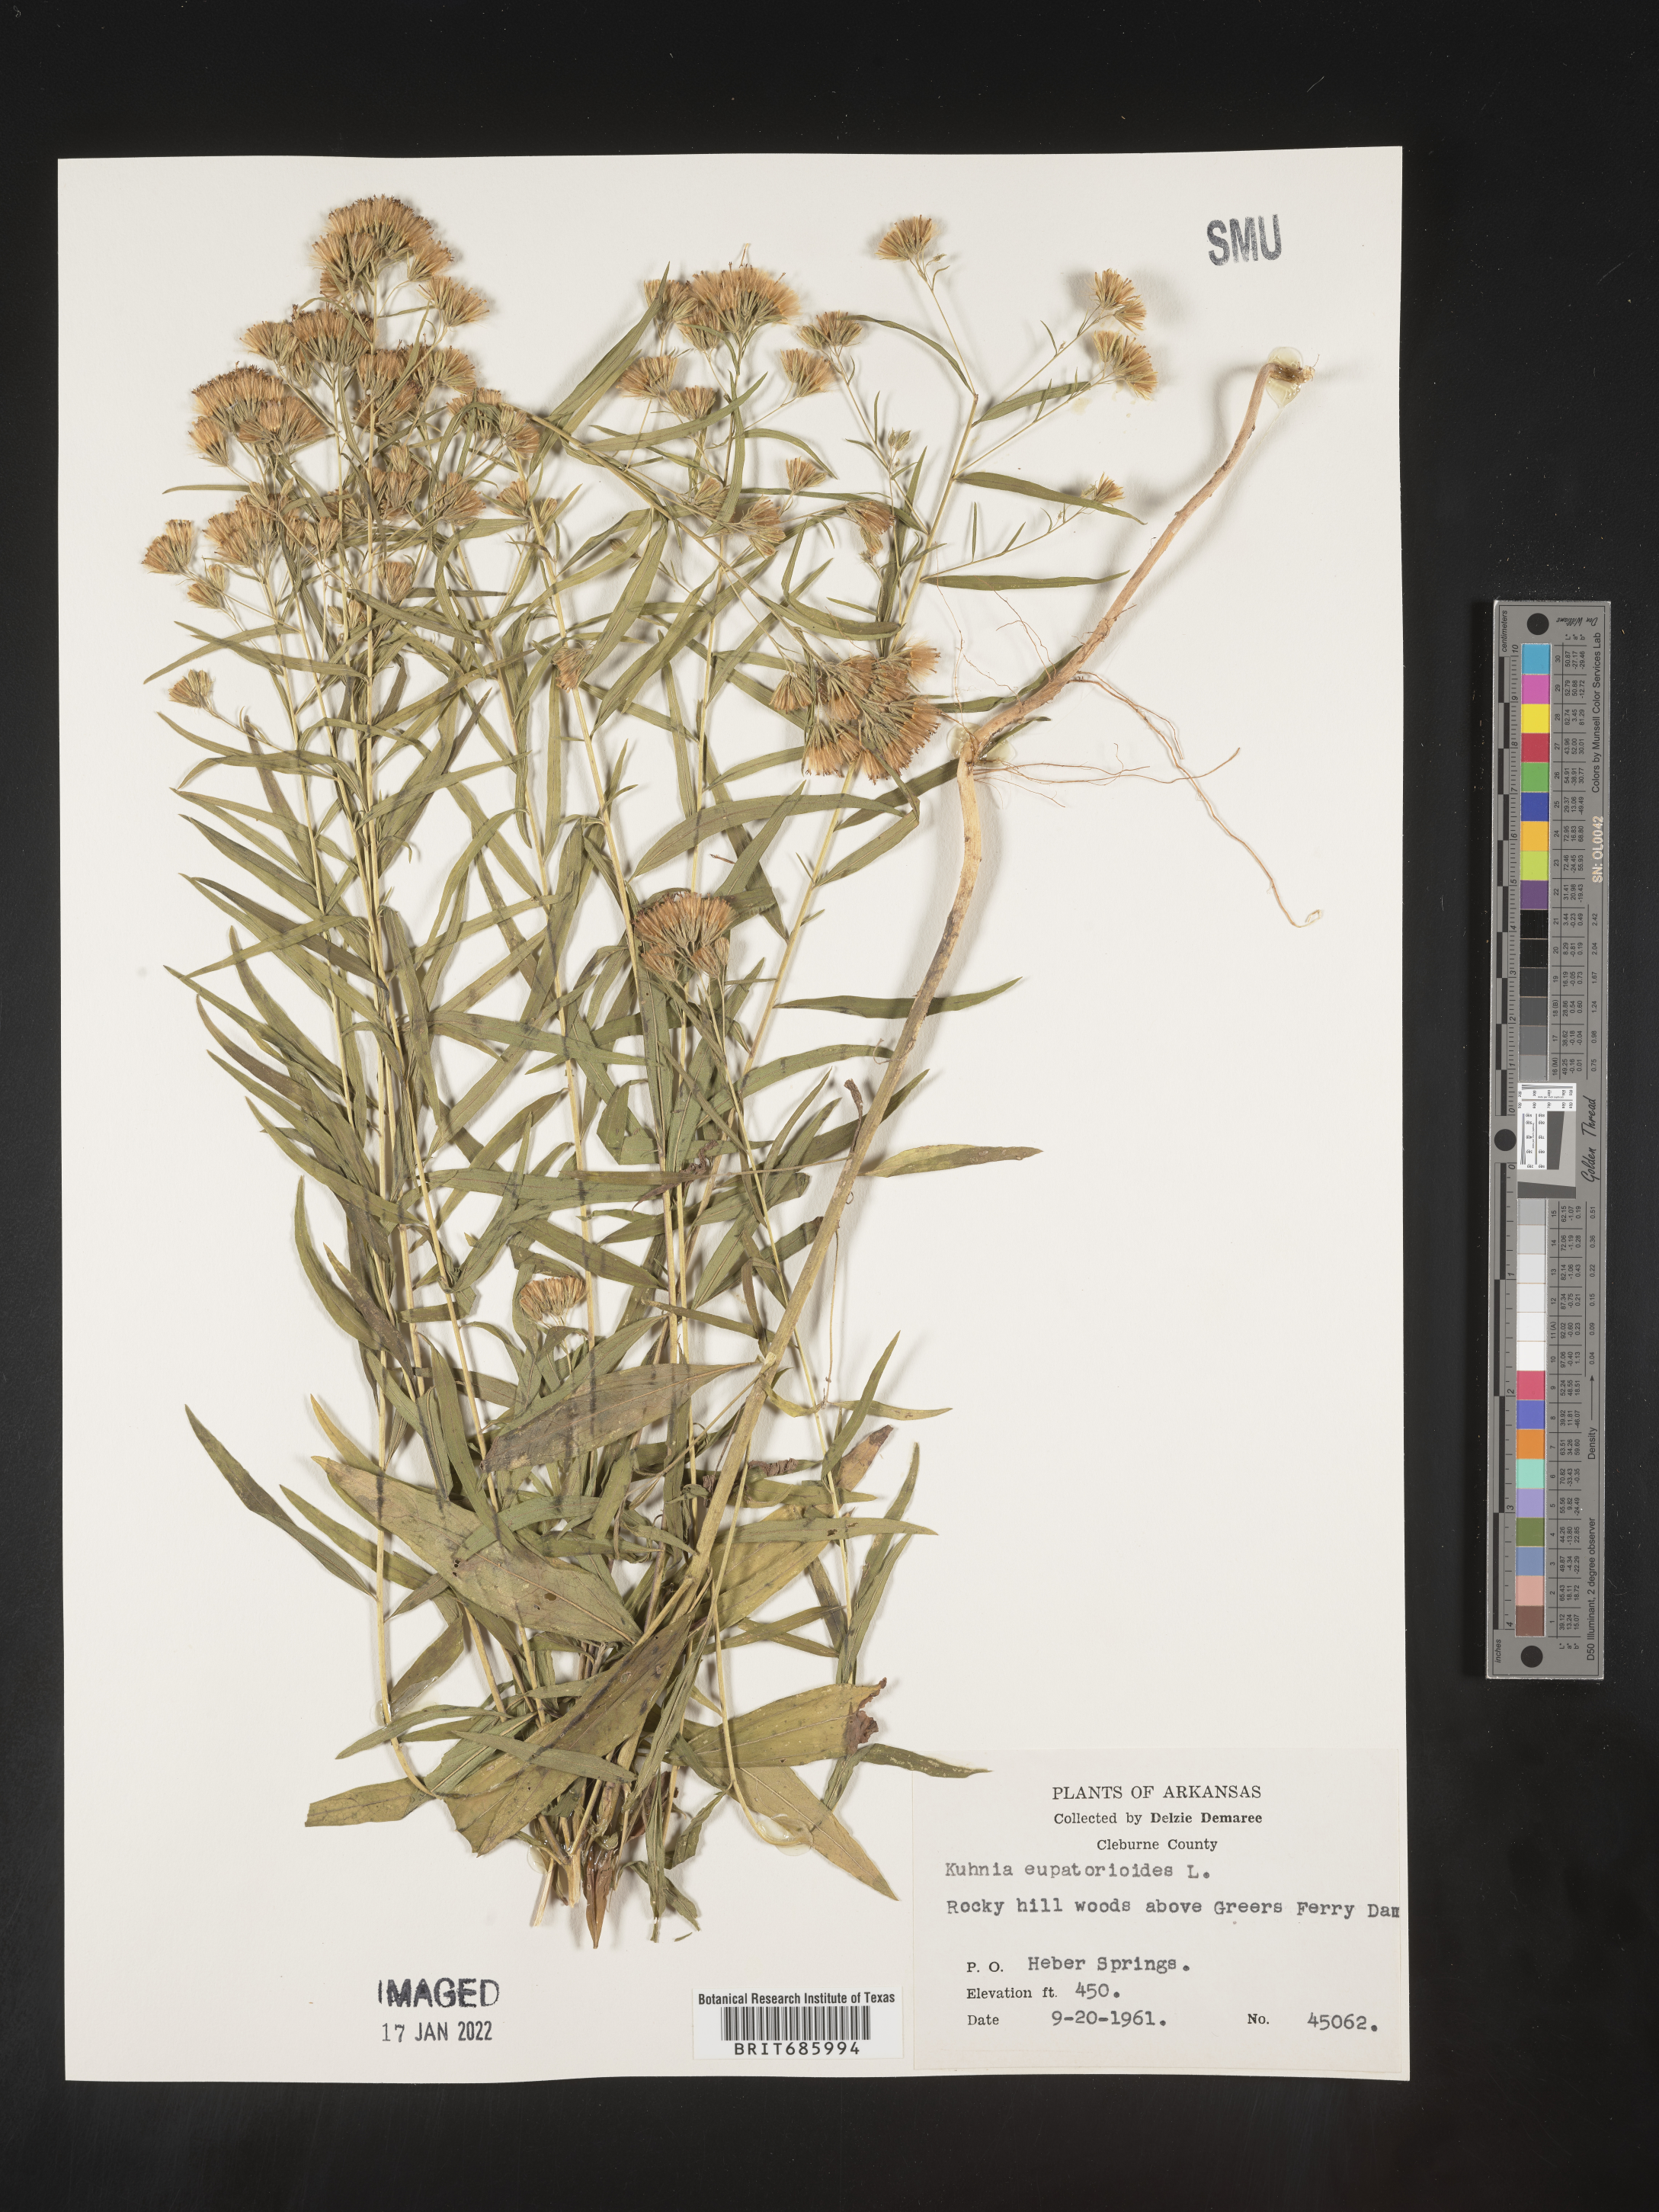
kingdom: Plantae
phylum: Tracheophyta
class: Magnoliopsida
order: Asterales
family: Asteraceae
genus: Brickellia
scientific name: Brickellia eupatorioides
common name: False boneset
